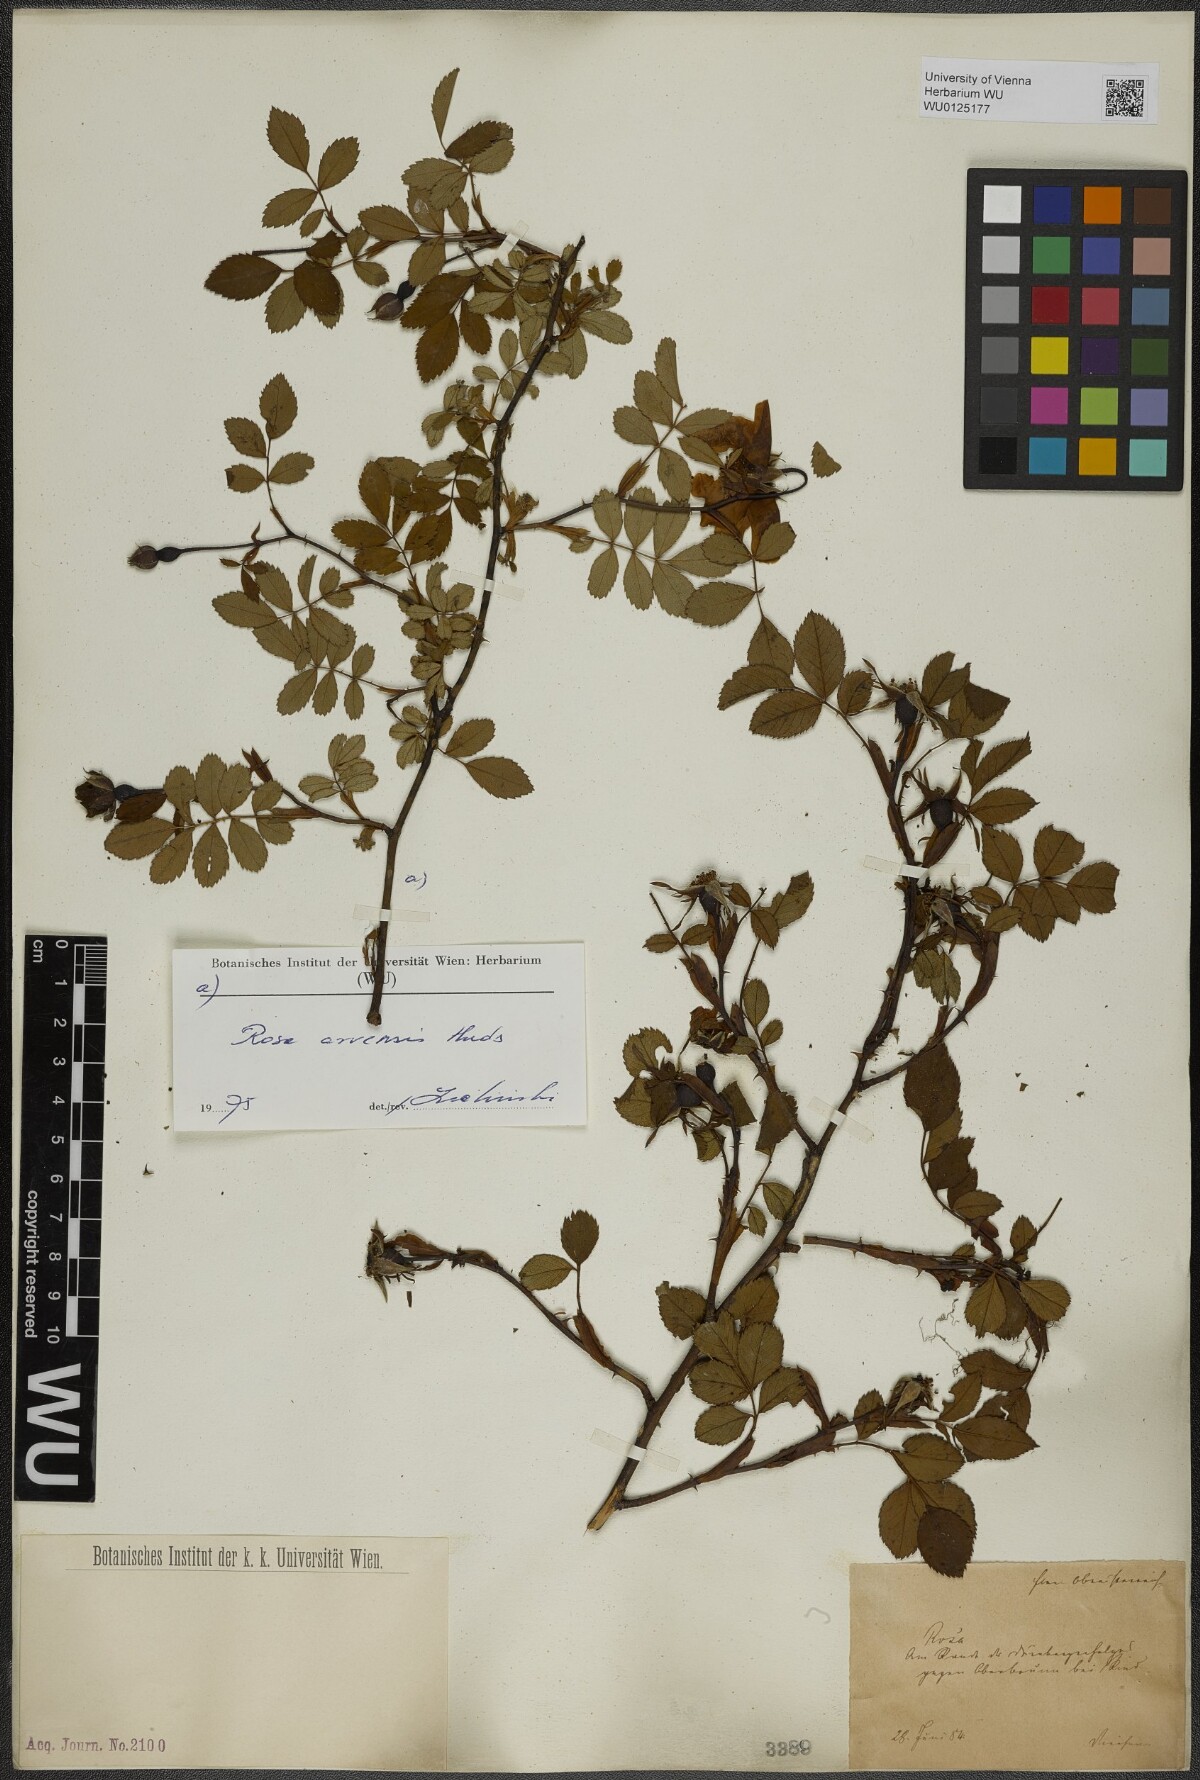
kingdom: Plantae
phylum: Tracheophyta
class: Magnoliopsida
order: Rosales
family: Rosaceae
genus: Rosa
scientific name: Rosa arvensis
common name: Field rose
